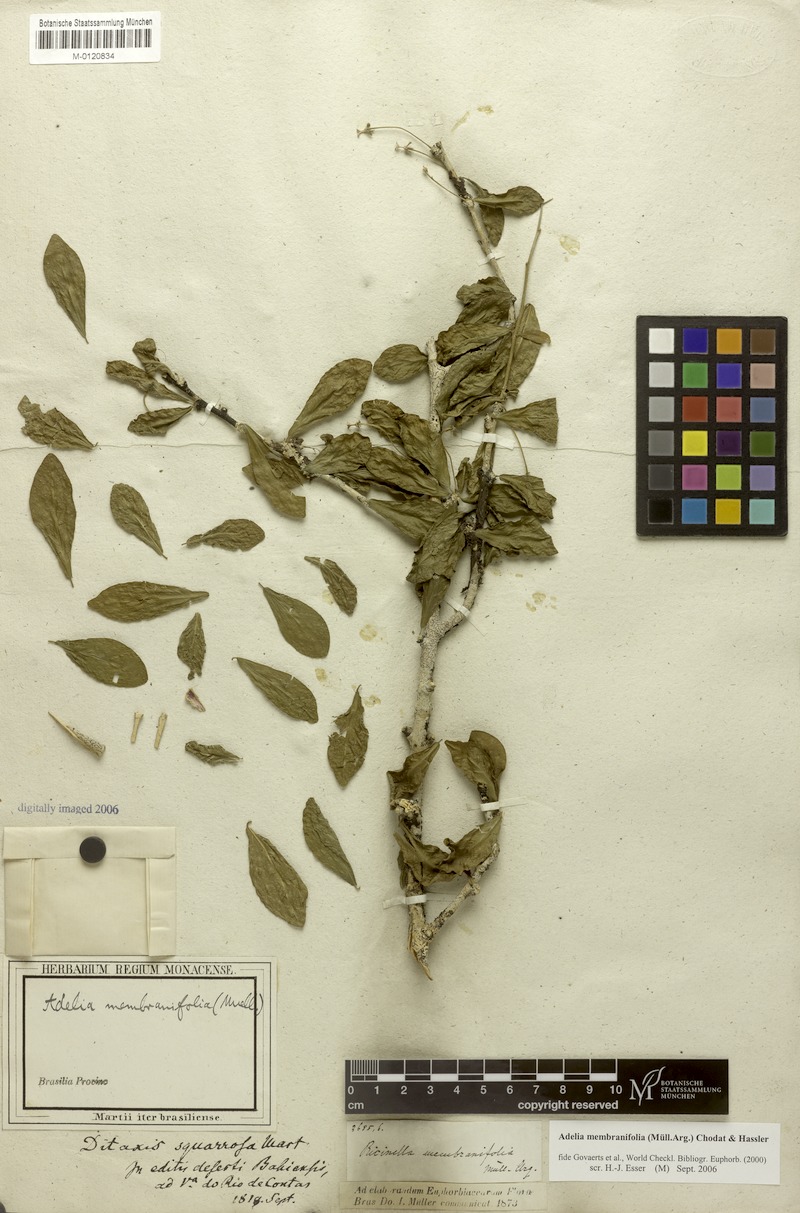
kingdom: Plantae
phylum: Tracheophyta
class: Magnoliopsida
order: Malpighiales
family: Euphorbiaceae
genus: Adelia
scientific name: Adelia membranifolia
